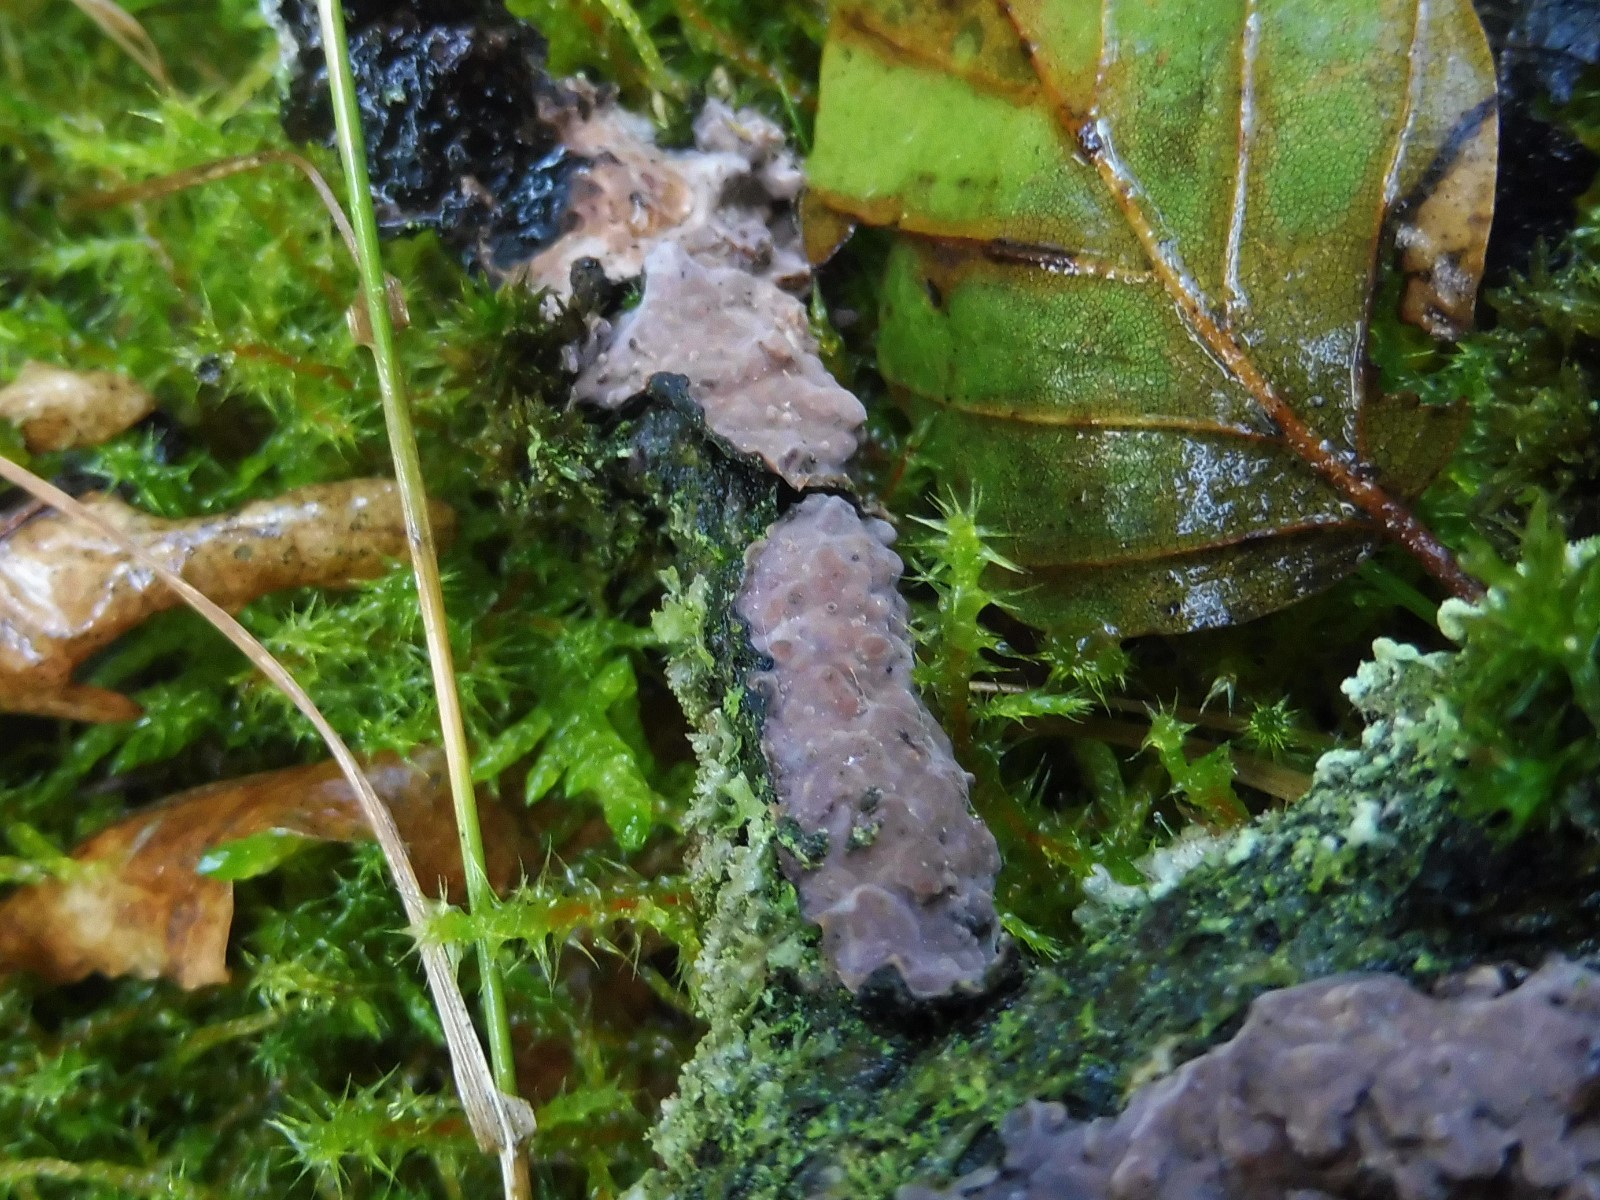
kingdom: Fungi
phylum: Basidiomycota
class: Agaricomycetes
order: Russulales
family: Peniophoraceae
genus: Peniophora
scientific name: Peniophora quercina
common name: ege-voksskind
